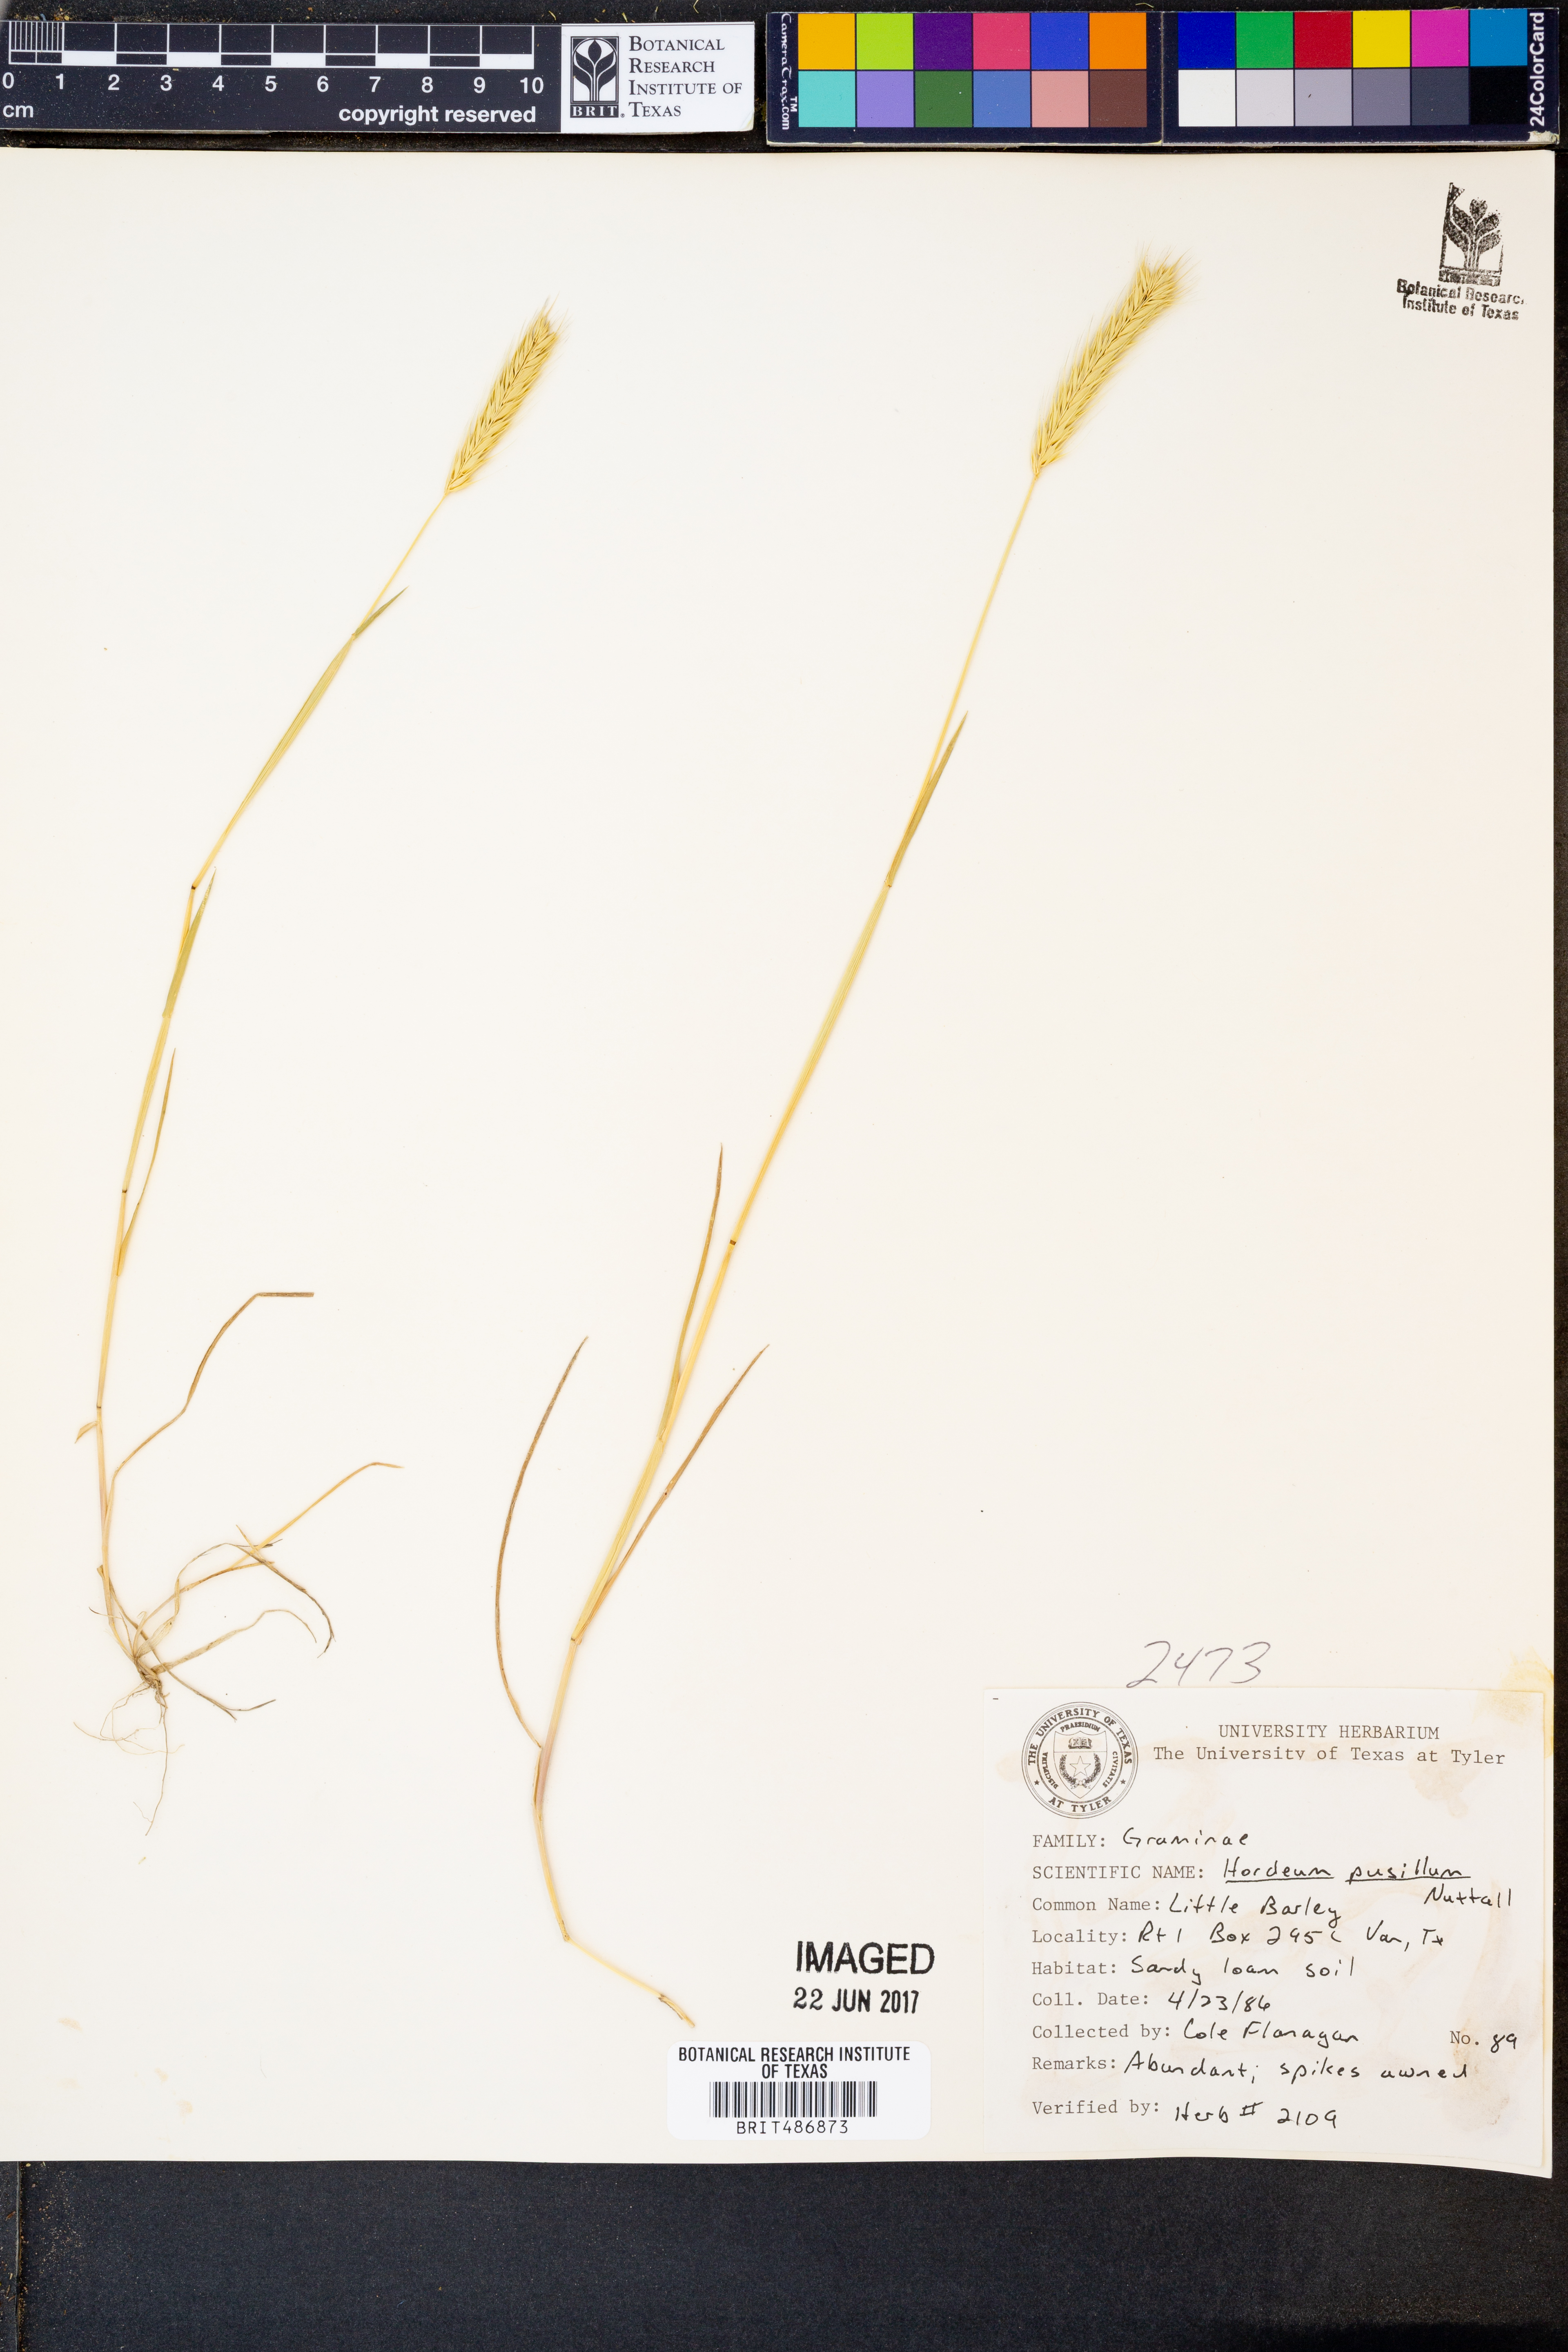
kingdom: Plantae
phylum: Tracheophyta
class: Liliopsida
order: Poales
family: Poaceae
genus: Hordeum
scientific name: Hordeum pusillum
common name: Little barley
